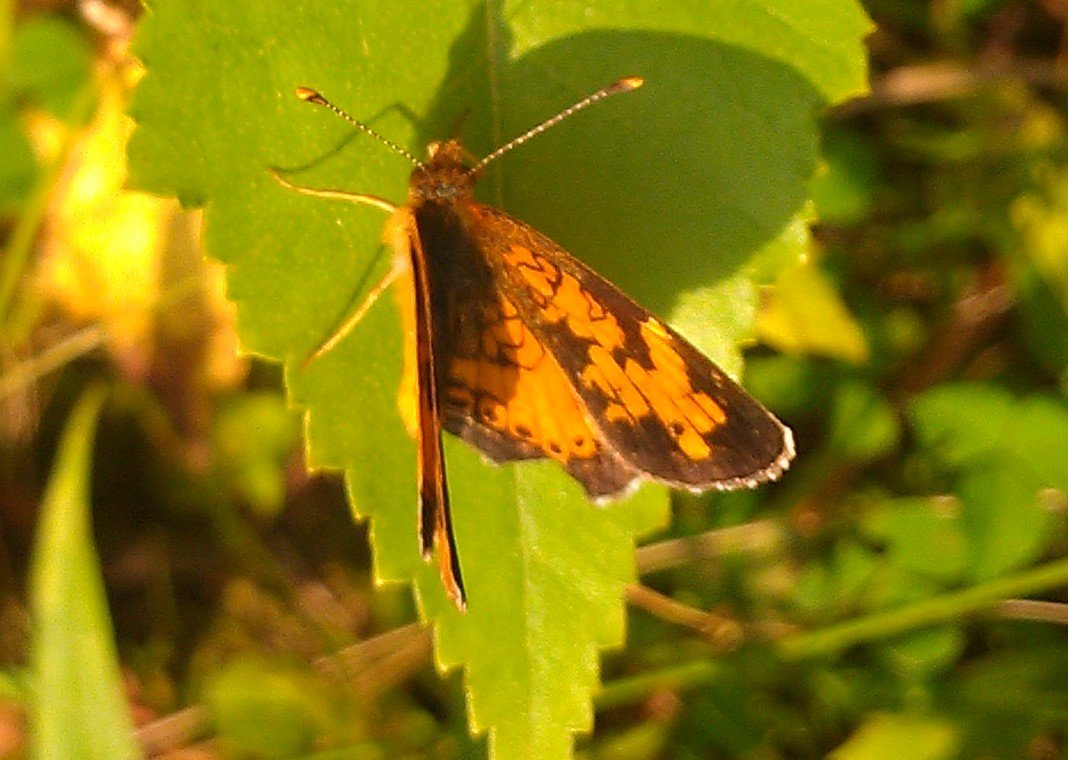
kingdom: Animalia
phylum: Arthropoda
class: Insecta
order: Lepidoptera
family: Nymphalidae
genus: Phyciodes
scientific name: Phyciodes tharos
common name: Northern Crescent
